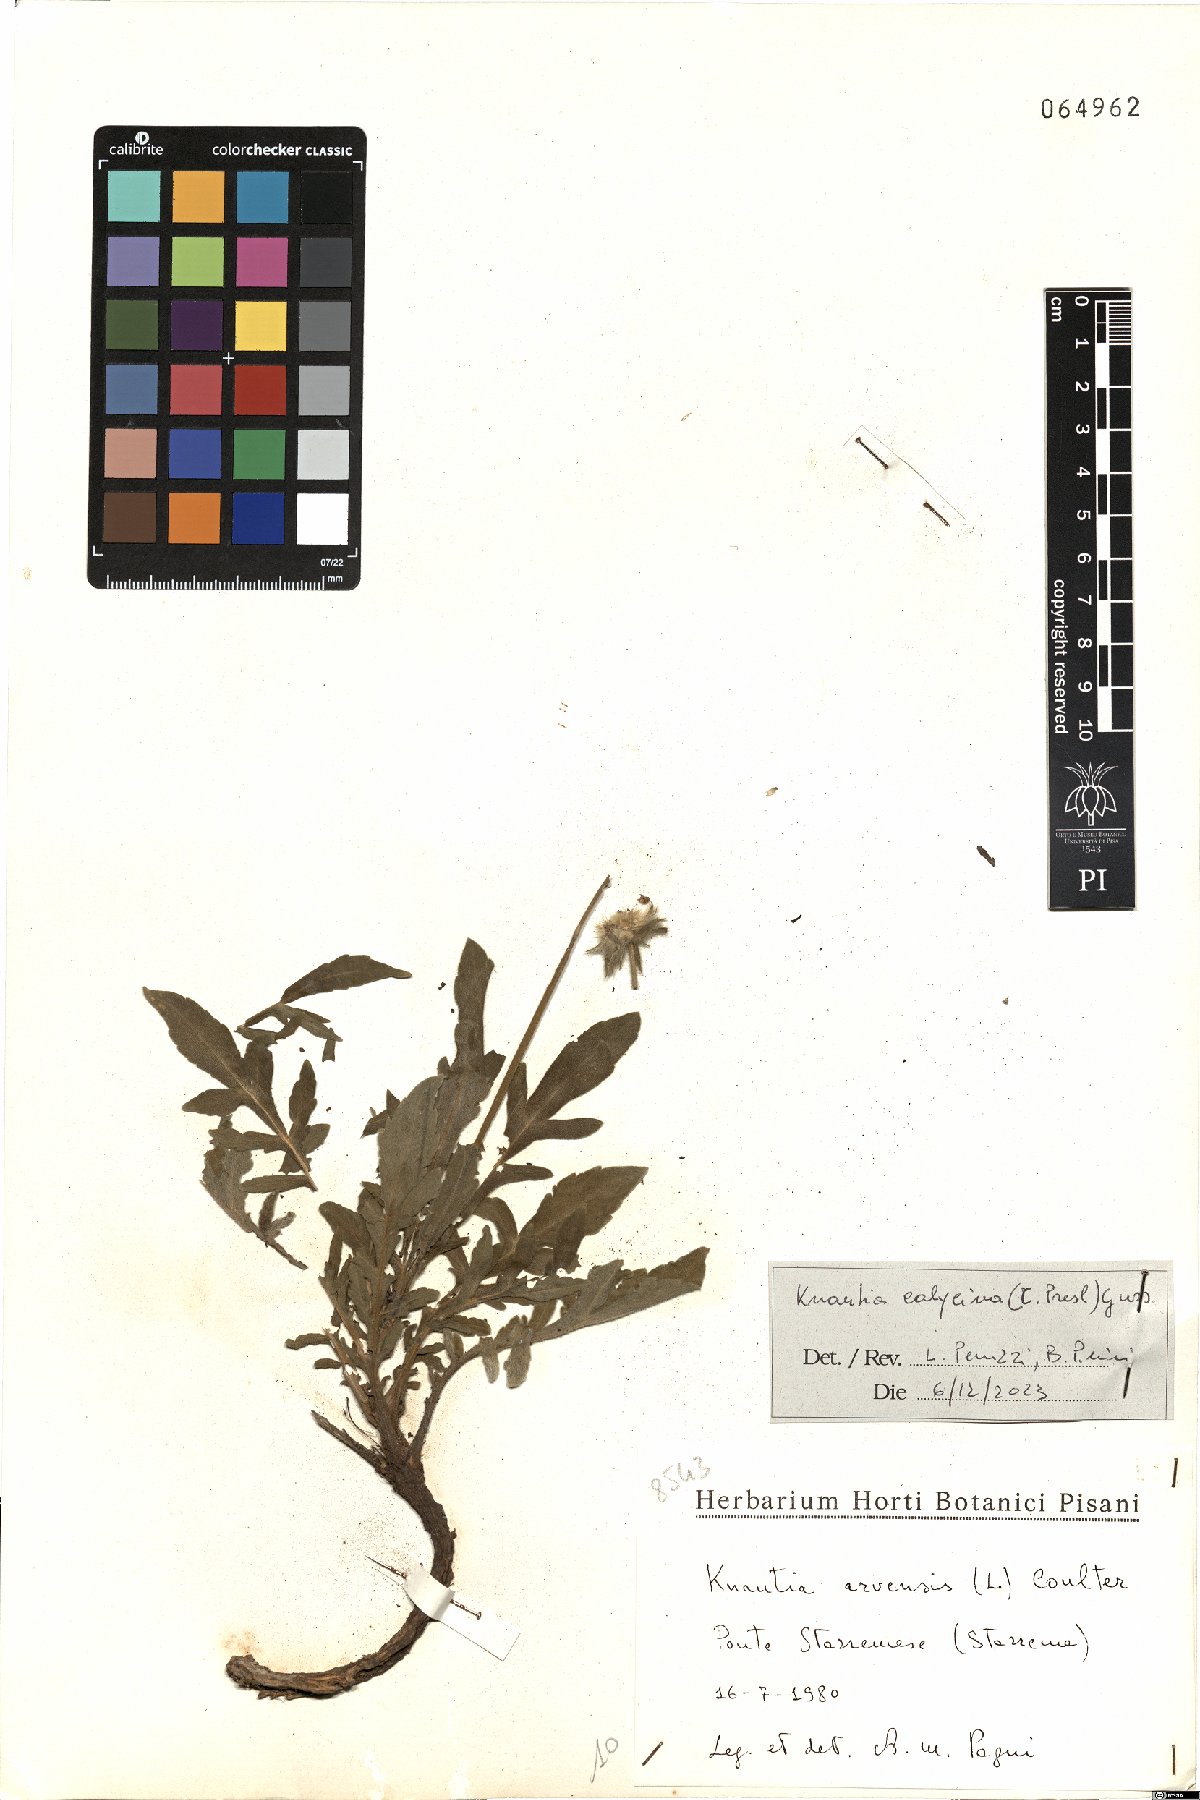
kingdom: Plantae
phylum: Tracheophyta
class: Magnoliopsida
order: Dipsacales
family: Caprifoliaceae
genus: Knautia
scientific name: Knautia calycina
